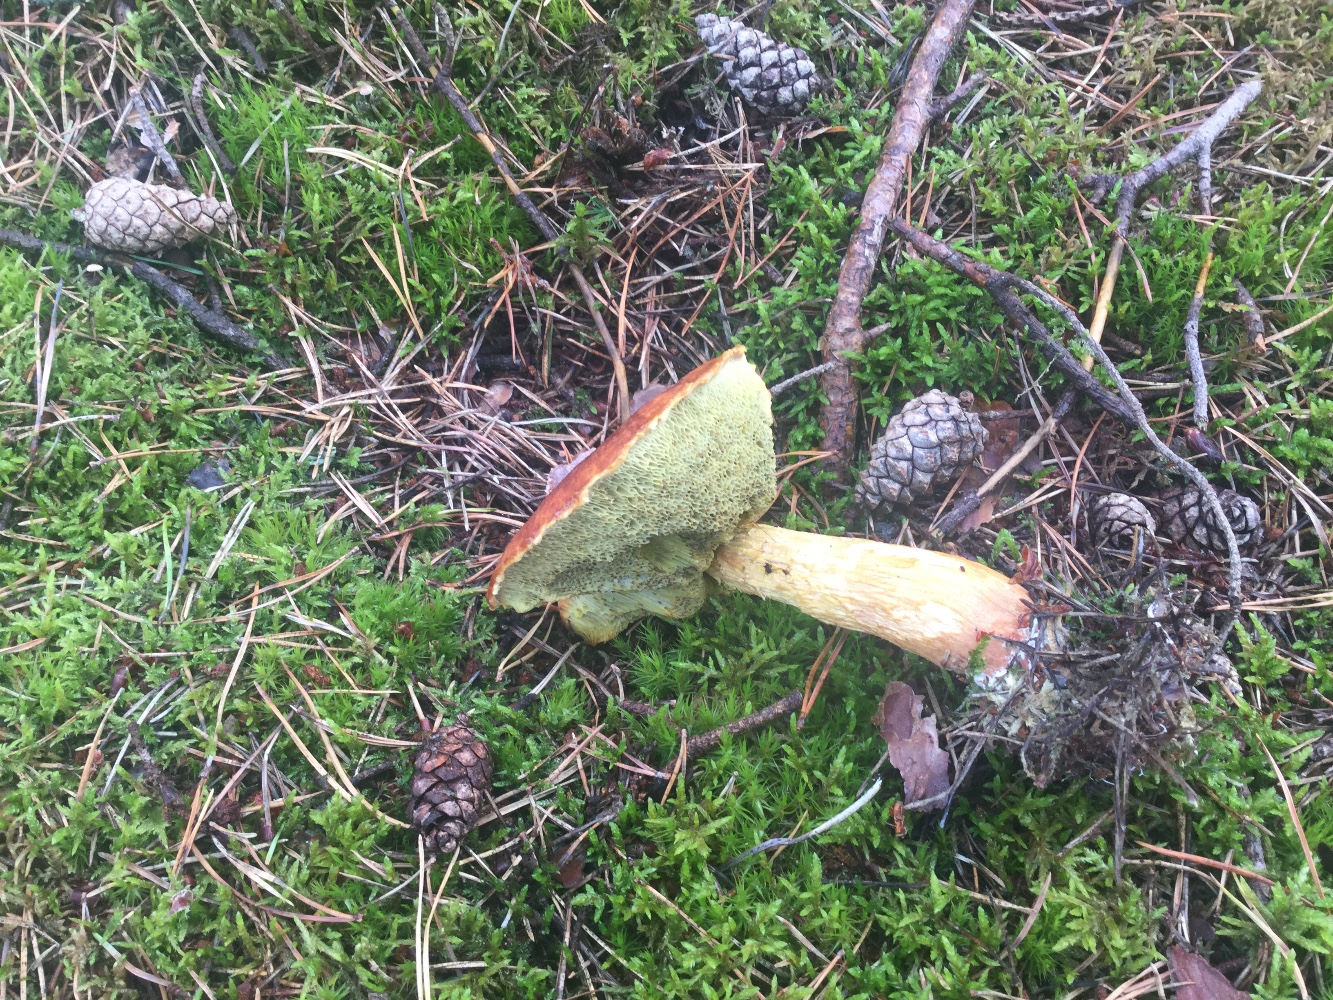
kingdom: Fungi
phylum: Basidiomycota
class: Agaricomycetes
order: Boletales
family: Boletaceae
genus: Aureoboletus
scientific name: Aureoboletus projectellus
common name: ribbestokket rørhat
